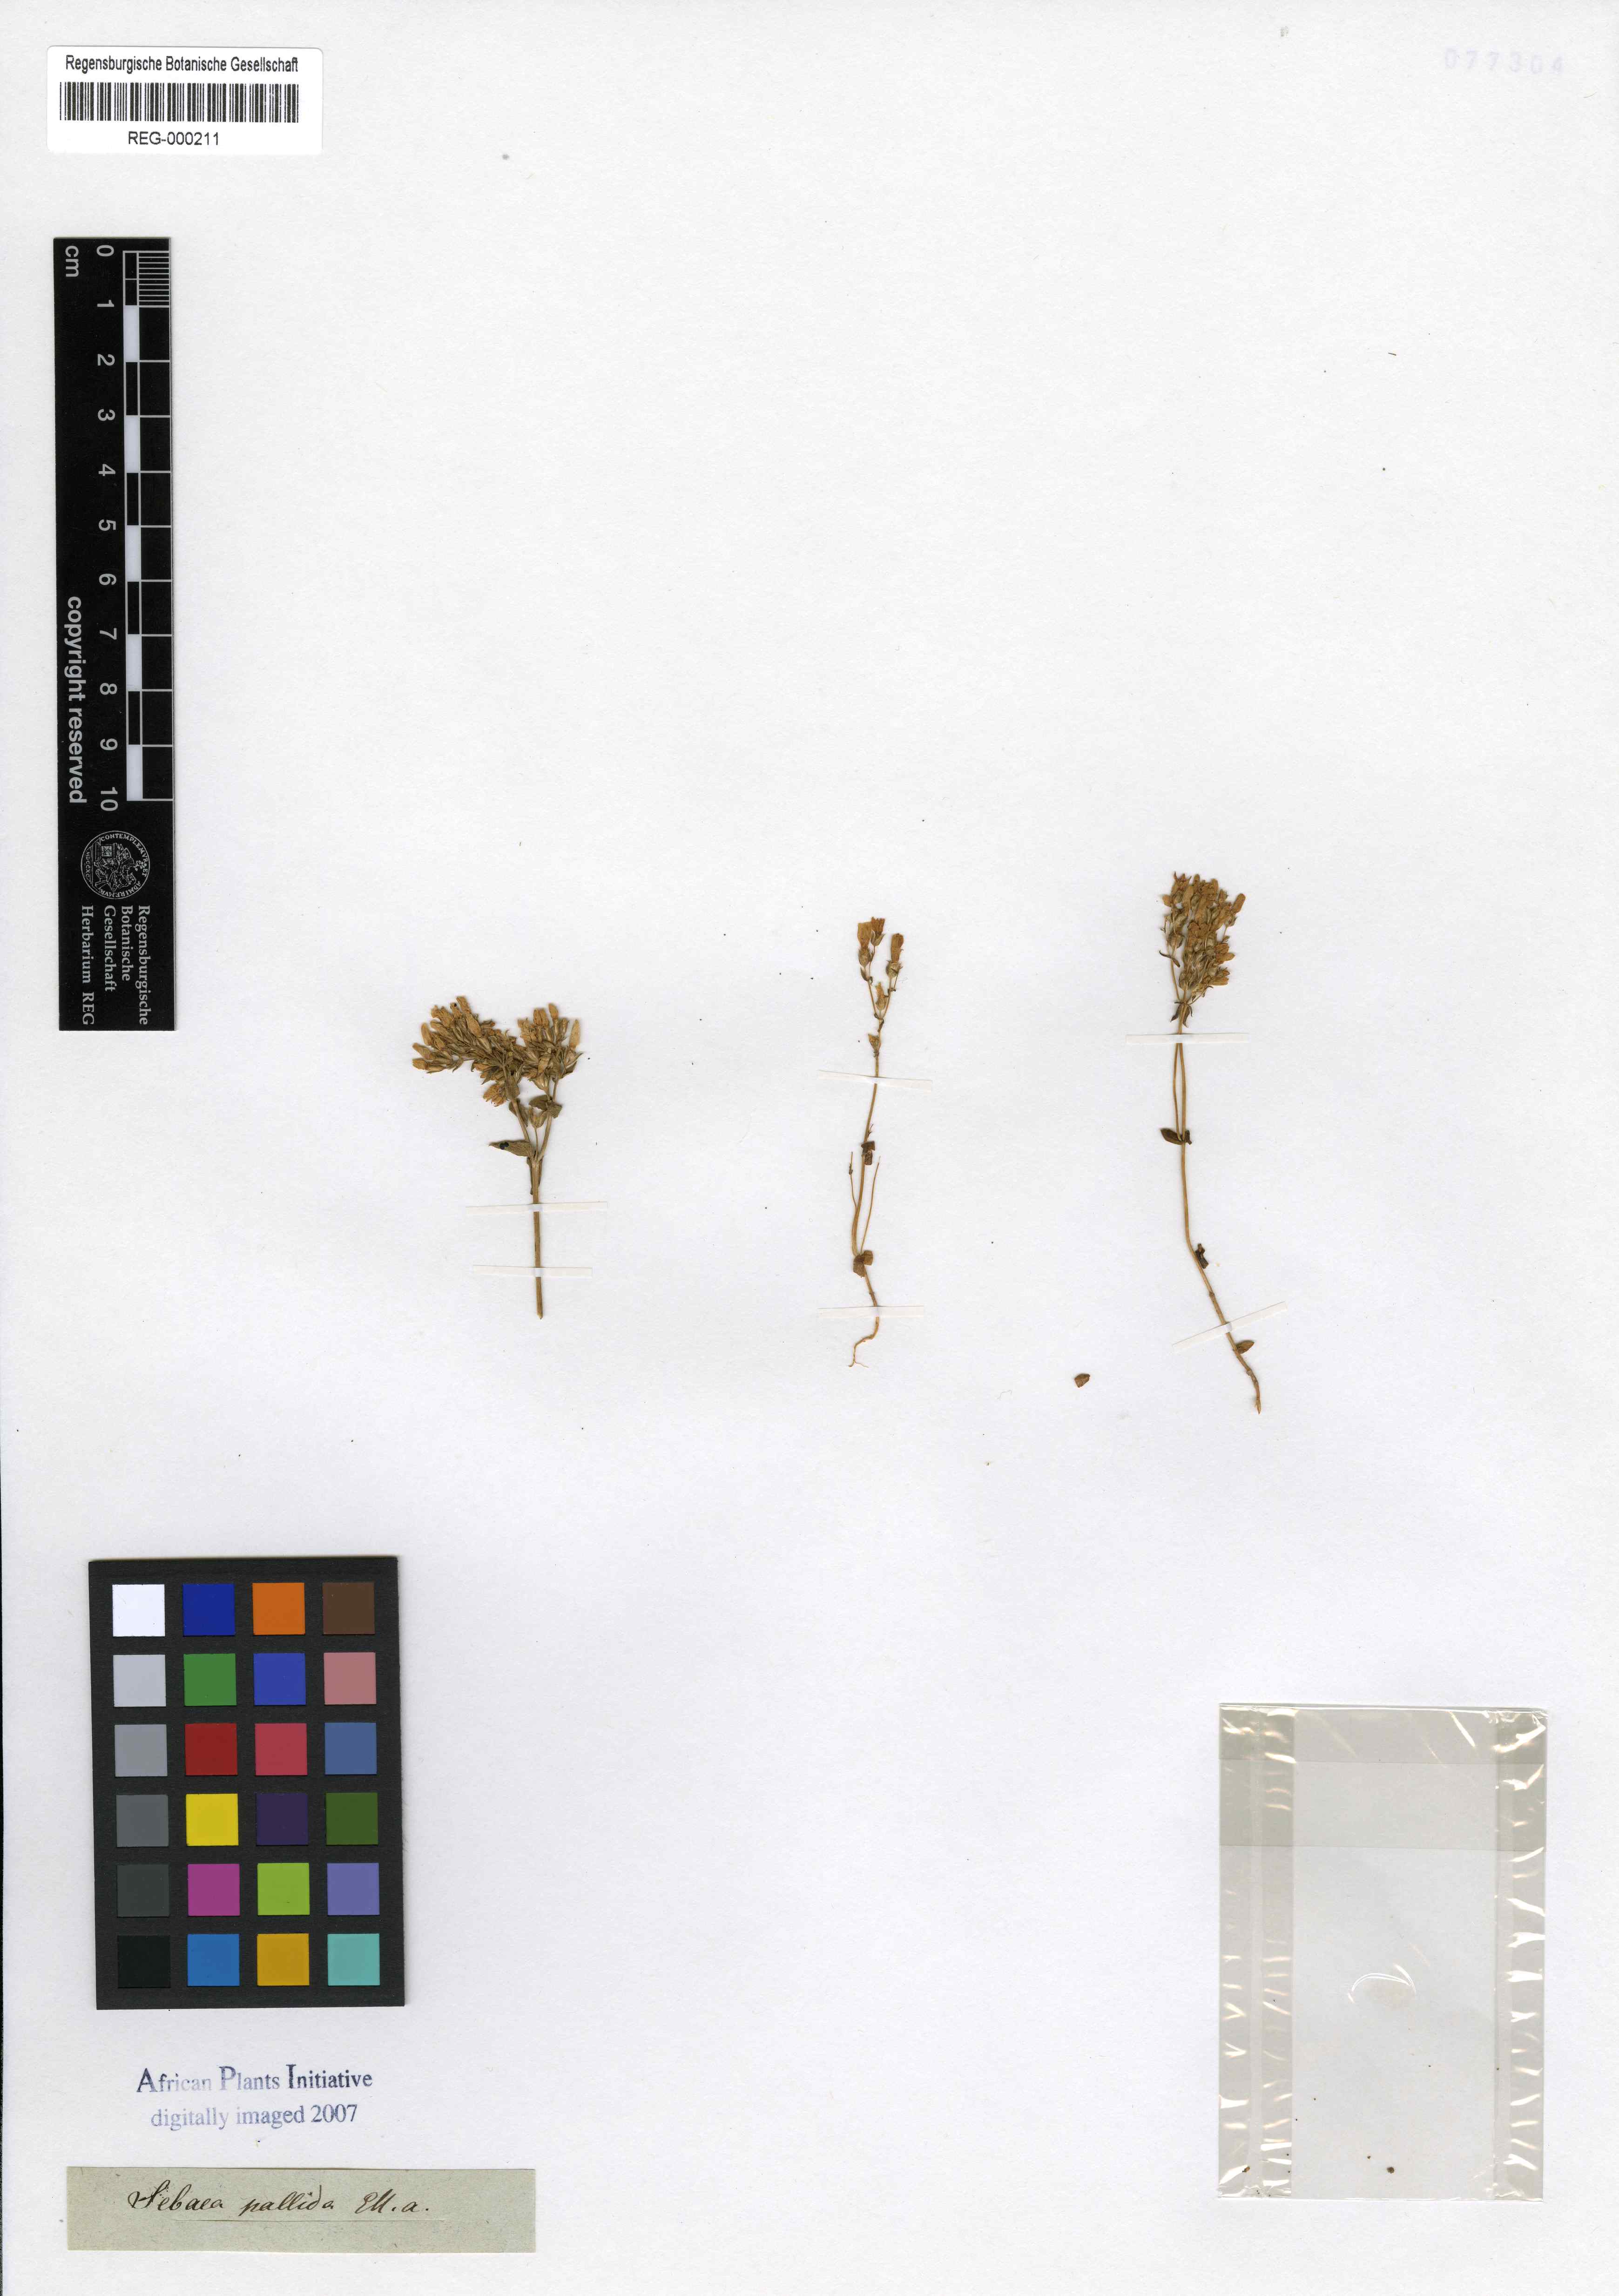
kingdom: Plantae
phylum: Tracheophyta
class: Magnoliopsida
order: Gentianales
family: Gentianaceae
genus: Sebaea
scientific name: Sebaea aurea
